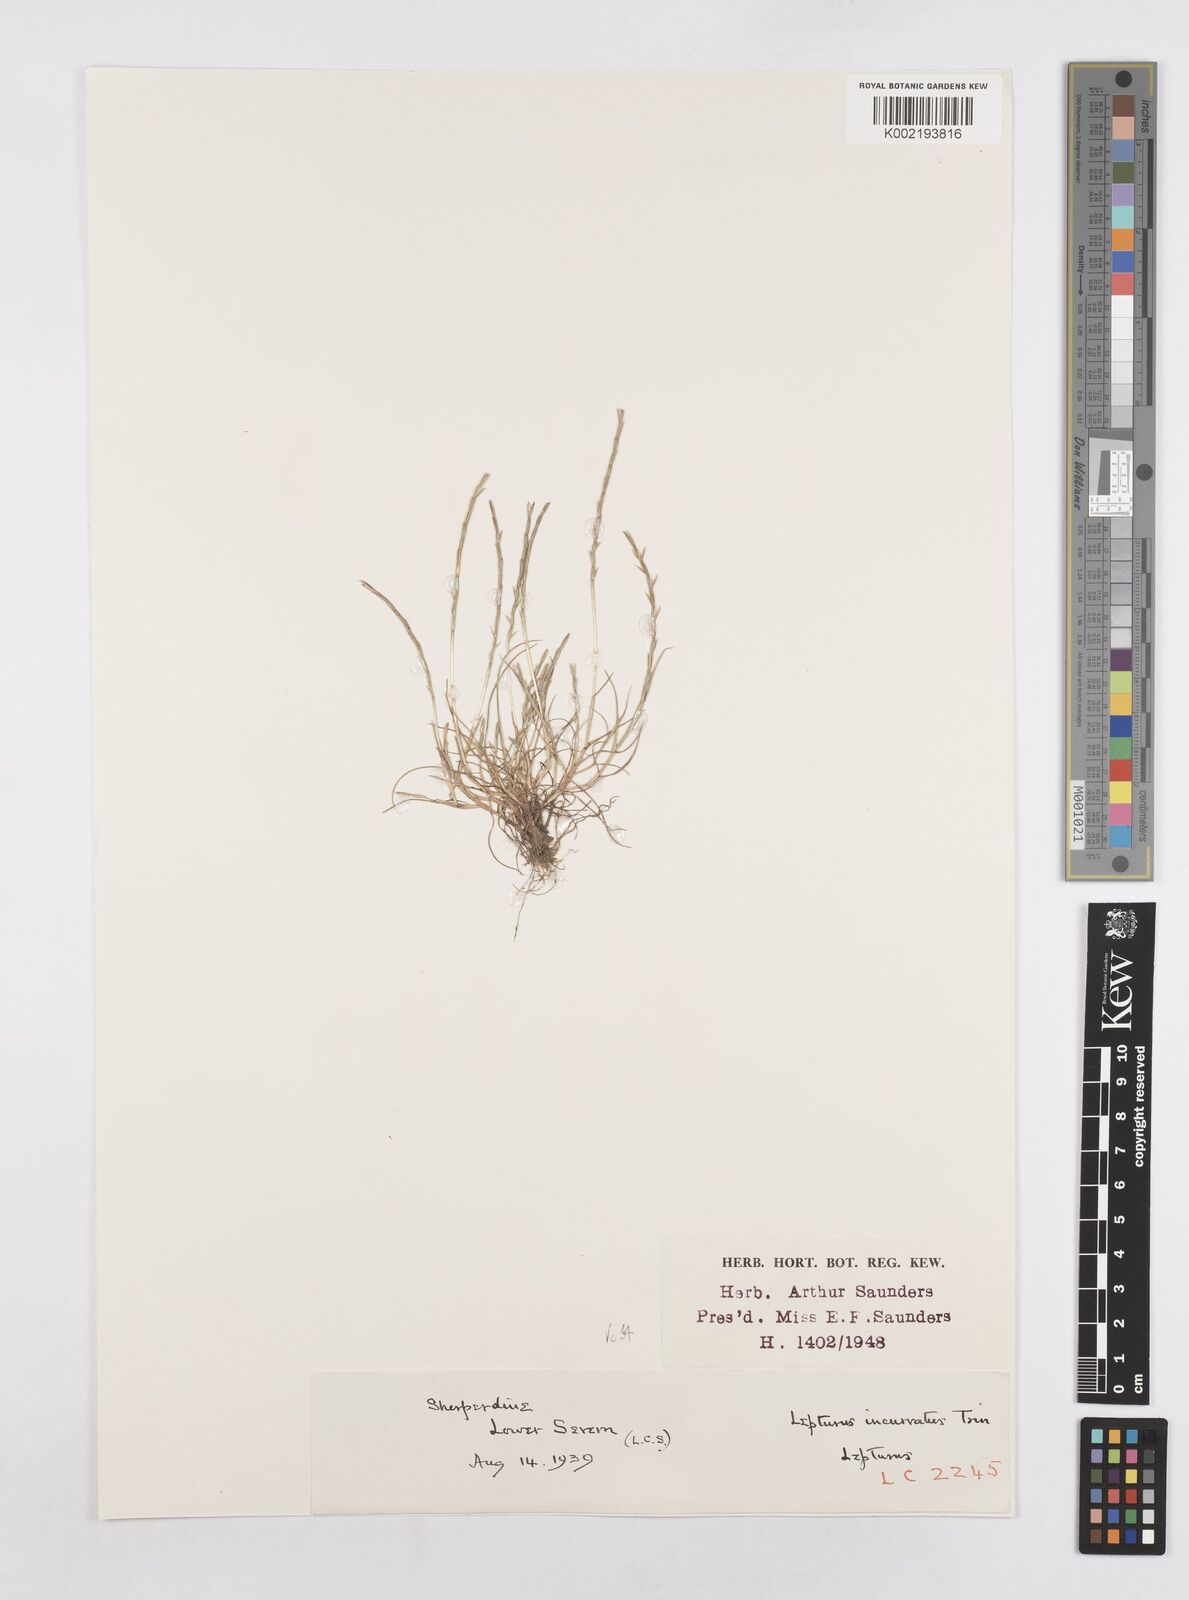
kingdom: Plantae
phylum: Tracheophyta
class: Liliopsida
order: Poales
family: Poaceae
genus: Parapholis
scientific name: Parapholis strigosa
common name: Hard-grass
